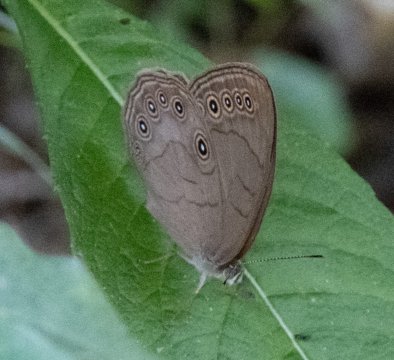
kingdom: Animalia
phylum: Arthropoda
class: Insecta
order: Lepidoptera
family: Nymphalidae
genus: Lethe
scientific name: Lethe eurydice
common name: Appalachian Eyed Brown
